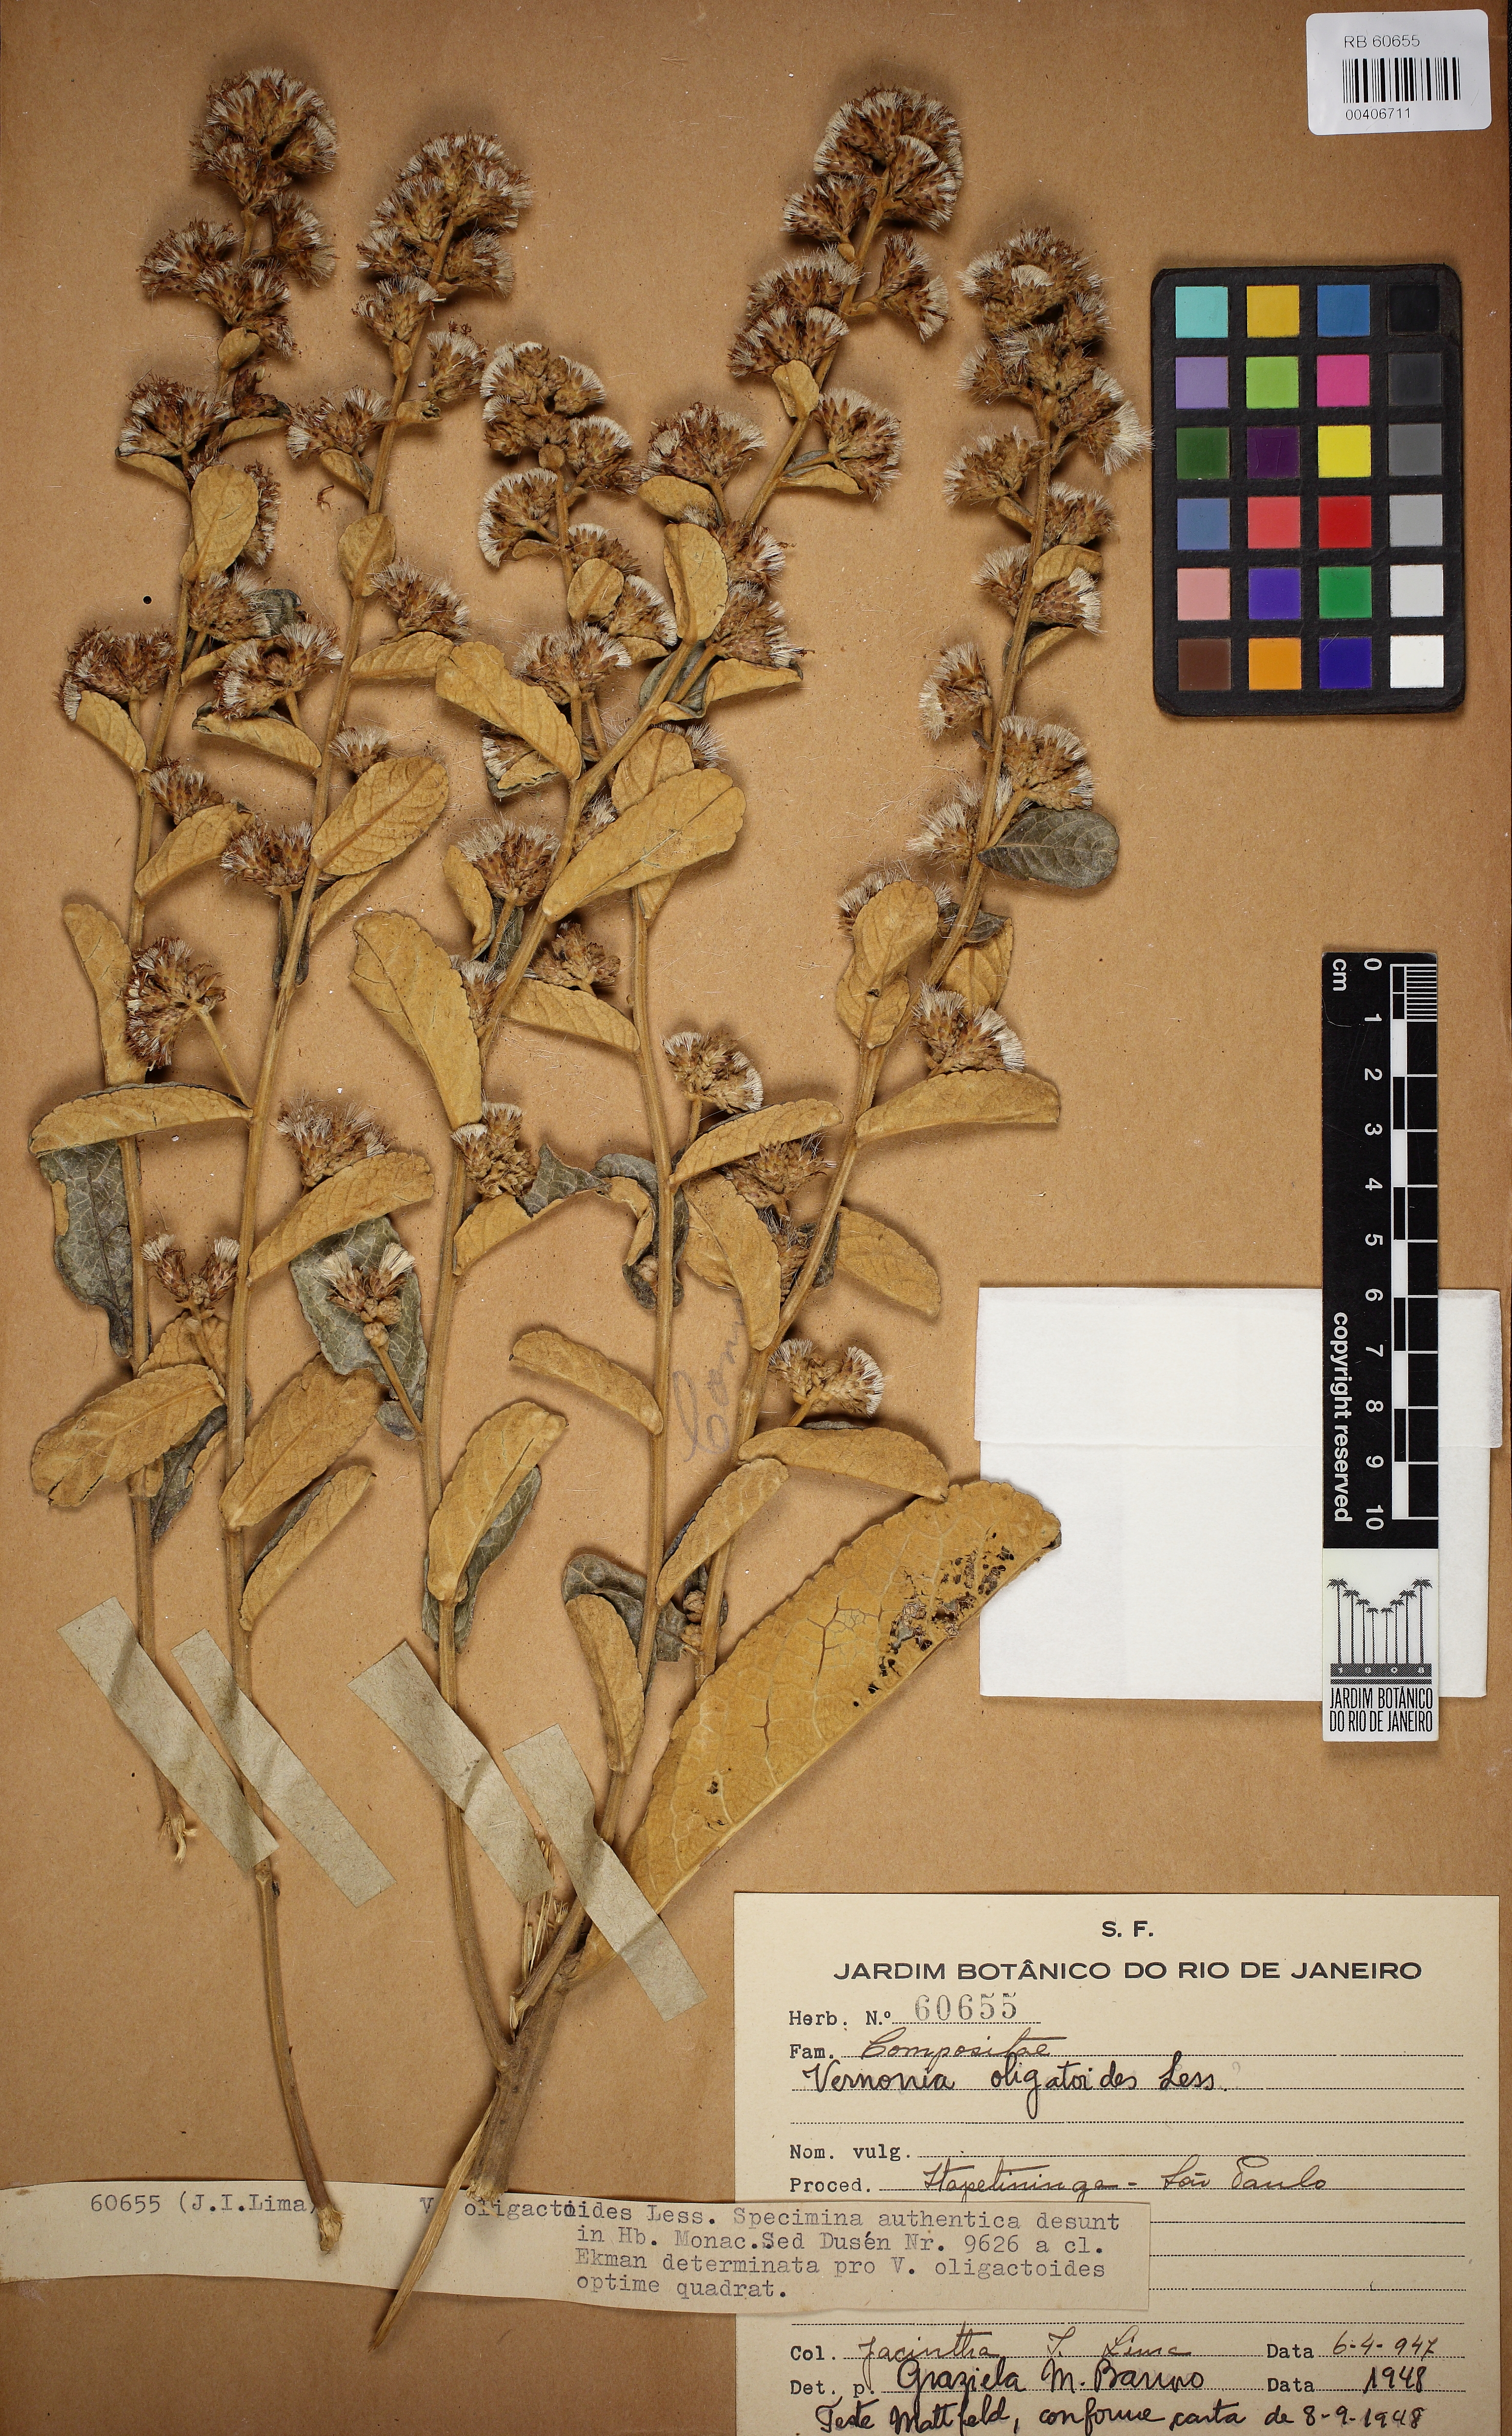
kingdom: Plantae
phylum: Tracheophyta
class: Magnoliopsida
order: Asterales
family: Asteraceae
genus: Vernonanthura
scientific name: Vernonanthura oligactoides
